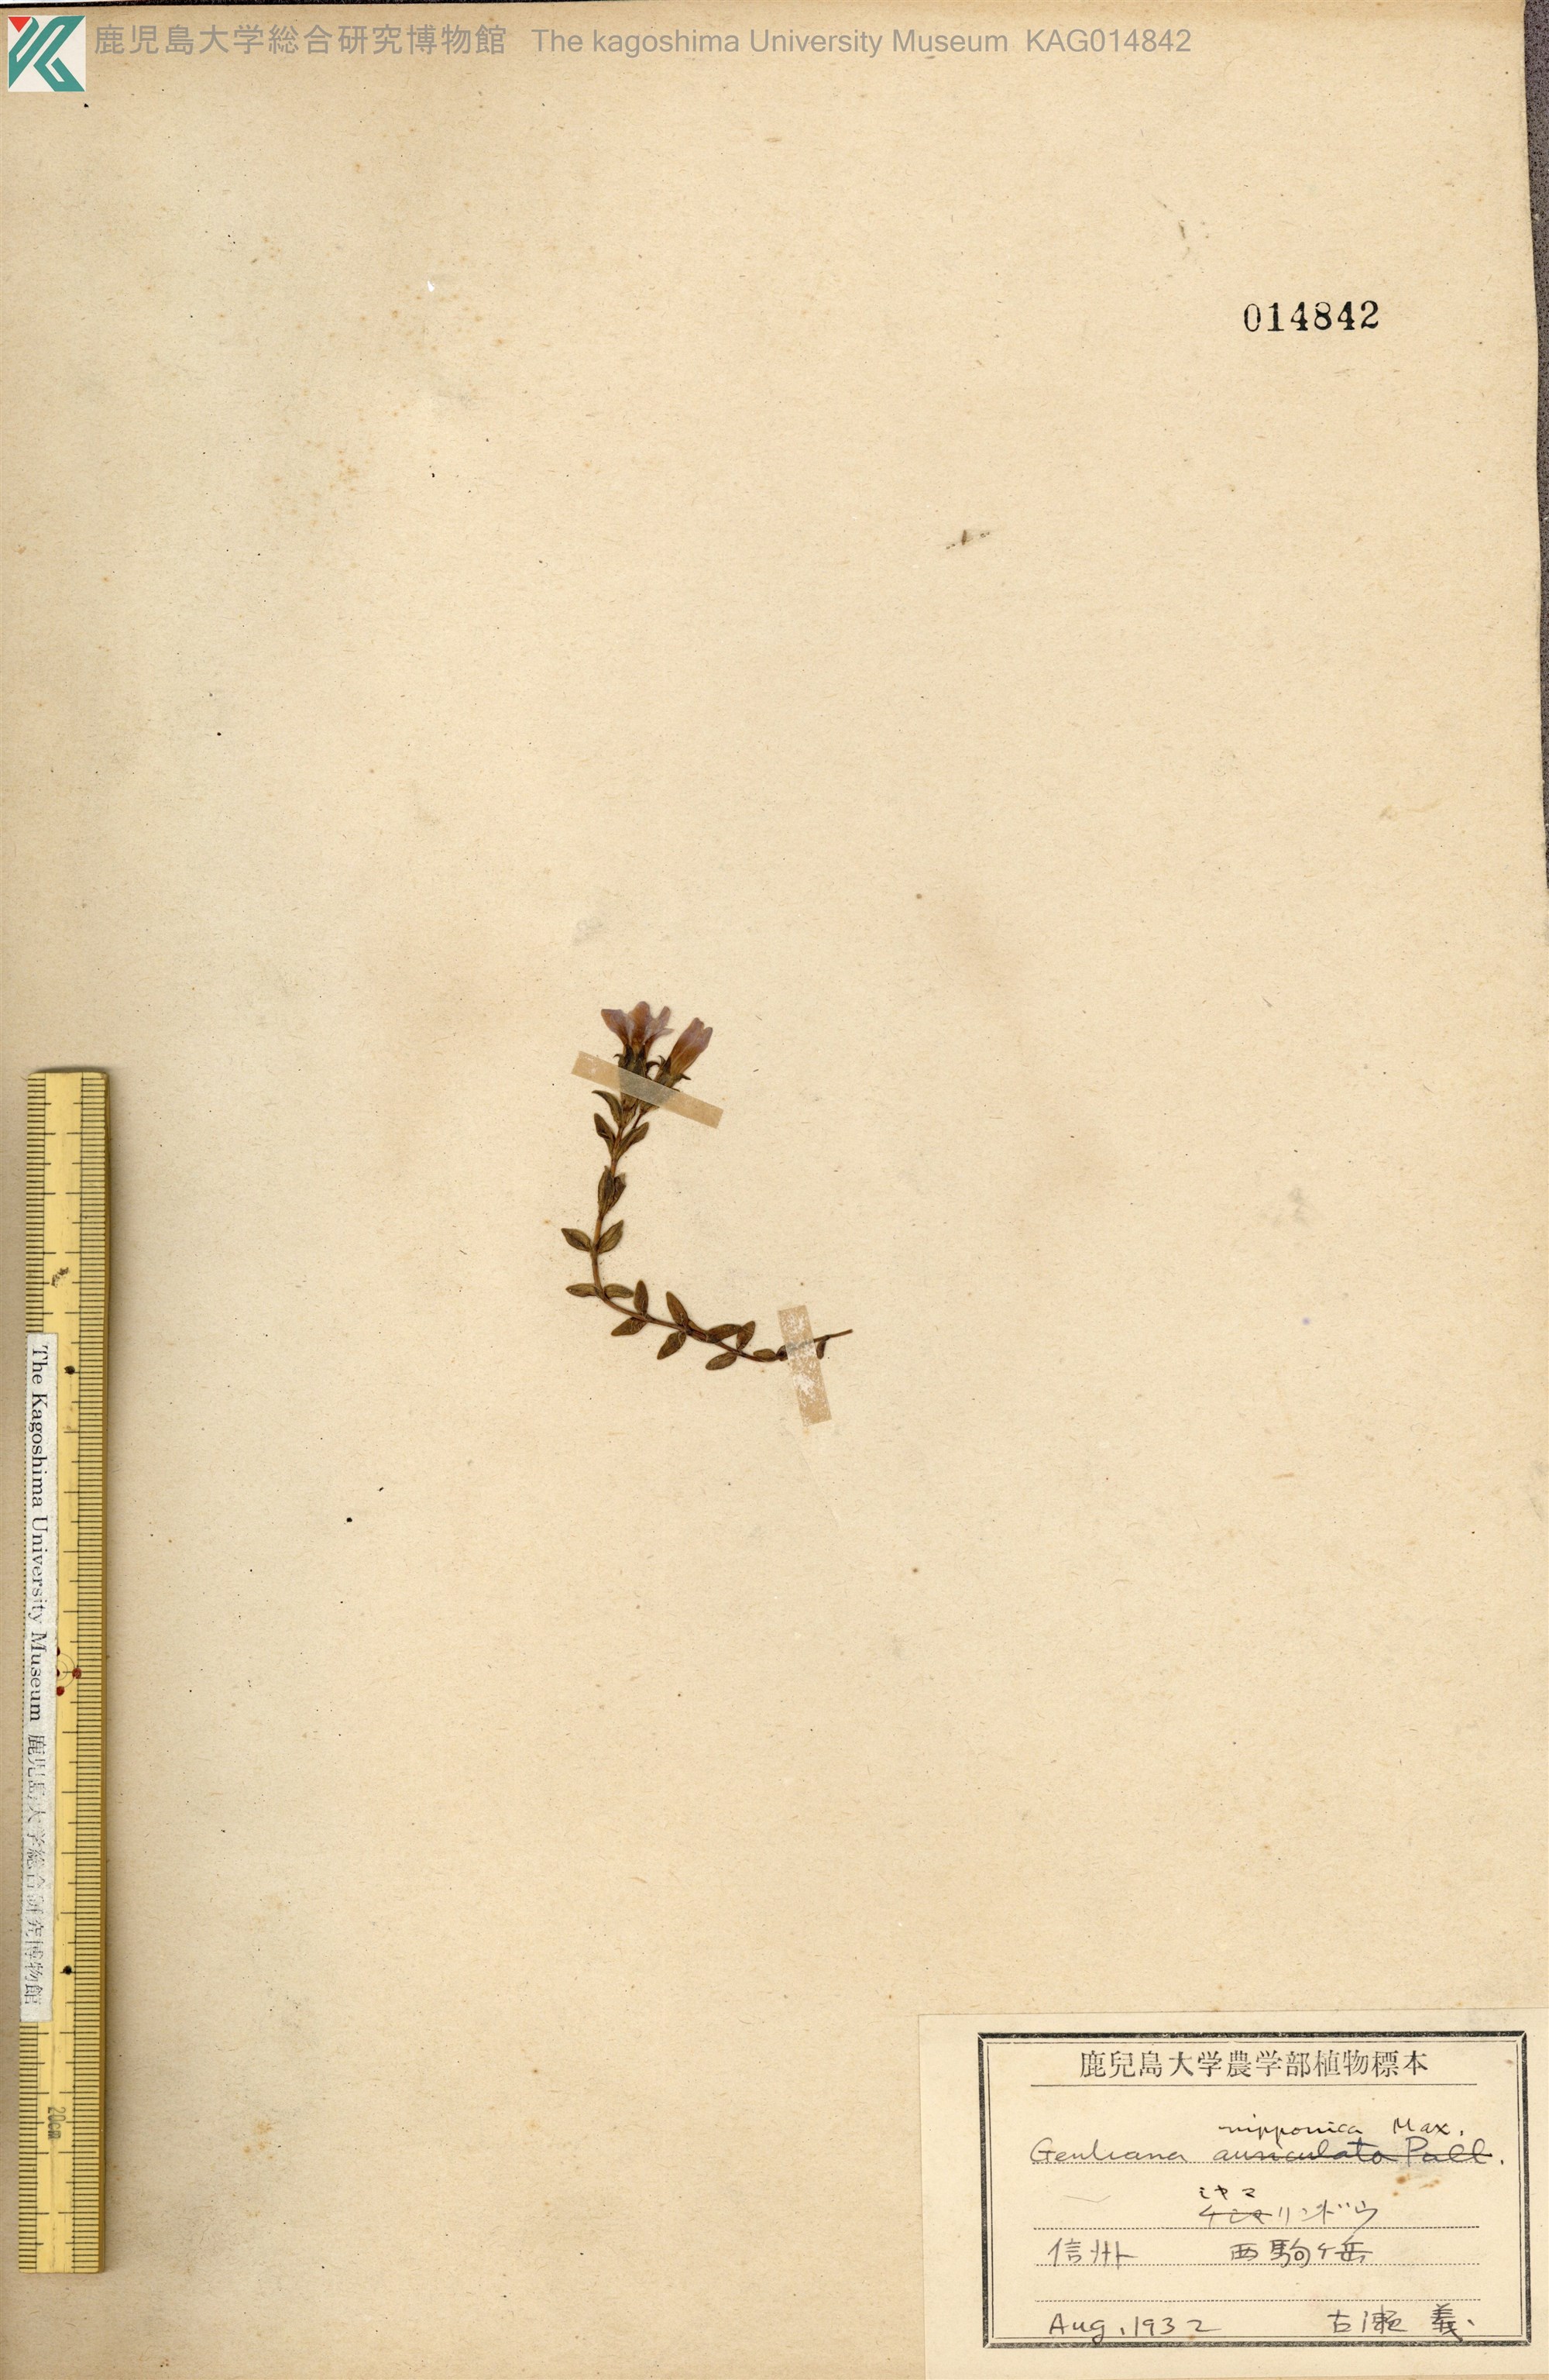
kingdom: Plantae
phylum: Tracheophyta
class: Magnoliopsida
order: Gentianales
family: Gentianaceae
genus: Gentiana
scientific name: Gentiana nipponica
